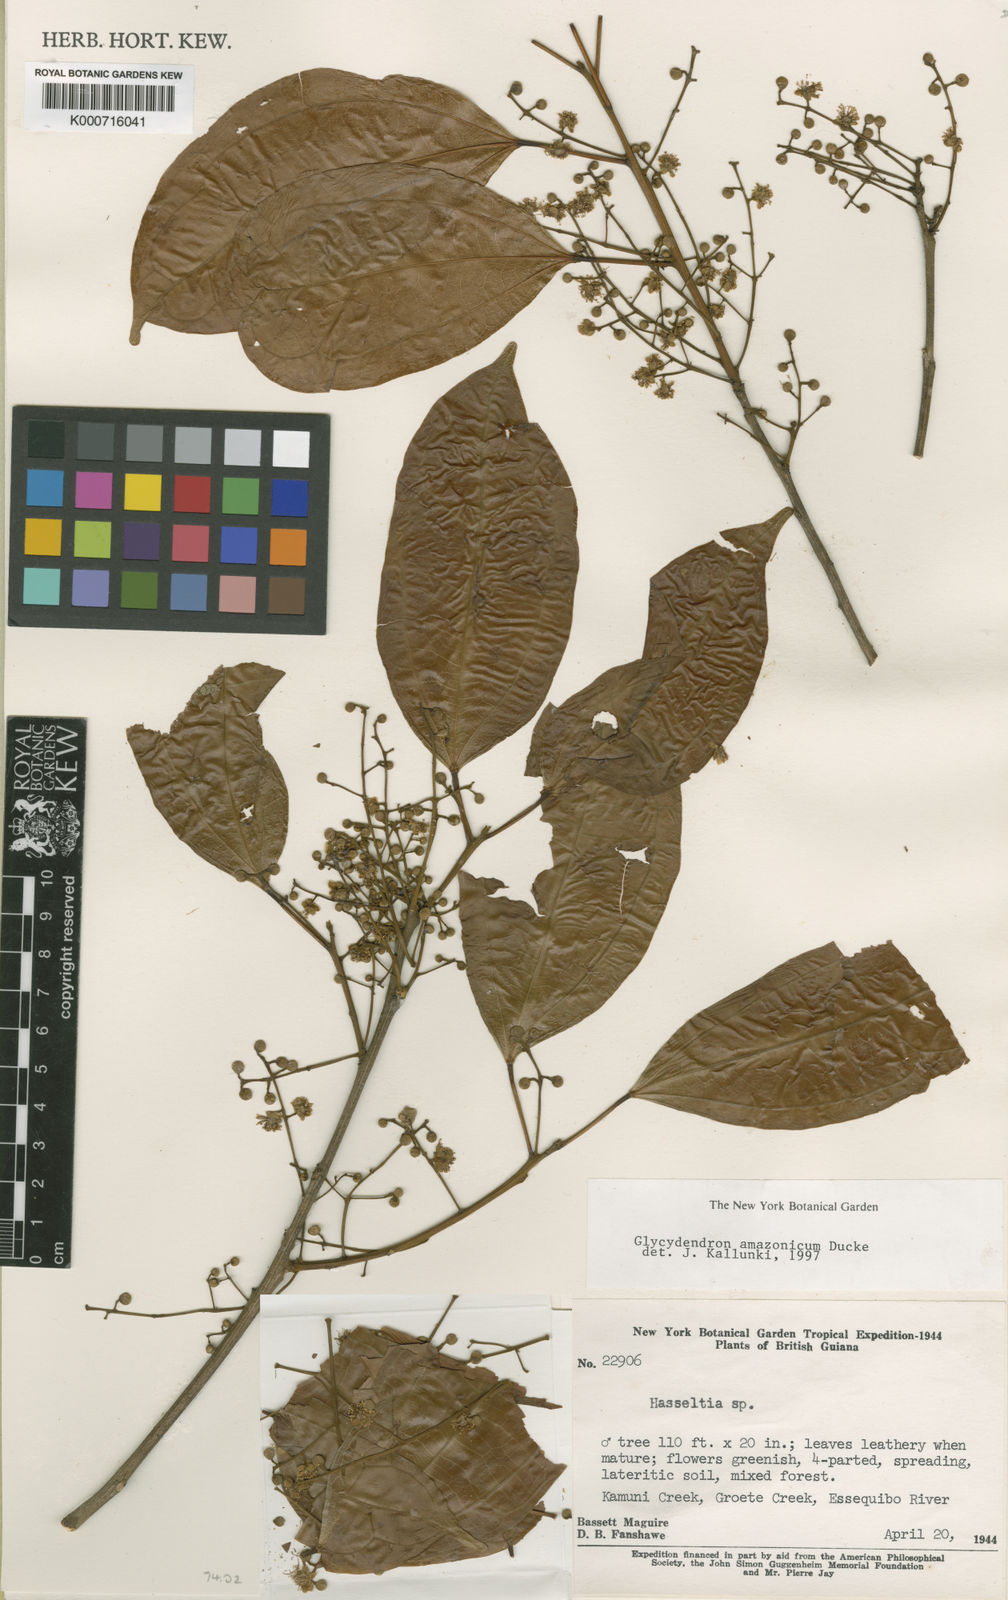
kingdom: Plantae
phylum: Tracheophyta
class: Magnoliopsida
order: Malpighiales
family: Euphorbiaceae
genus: Glycydendron
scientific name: Glycydendron amazonicum
